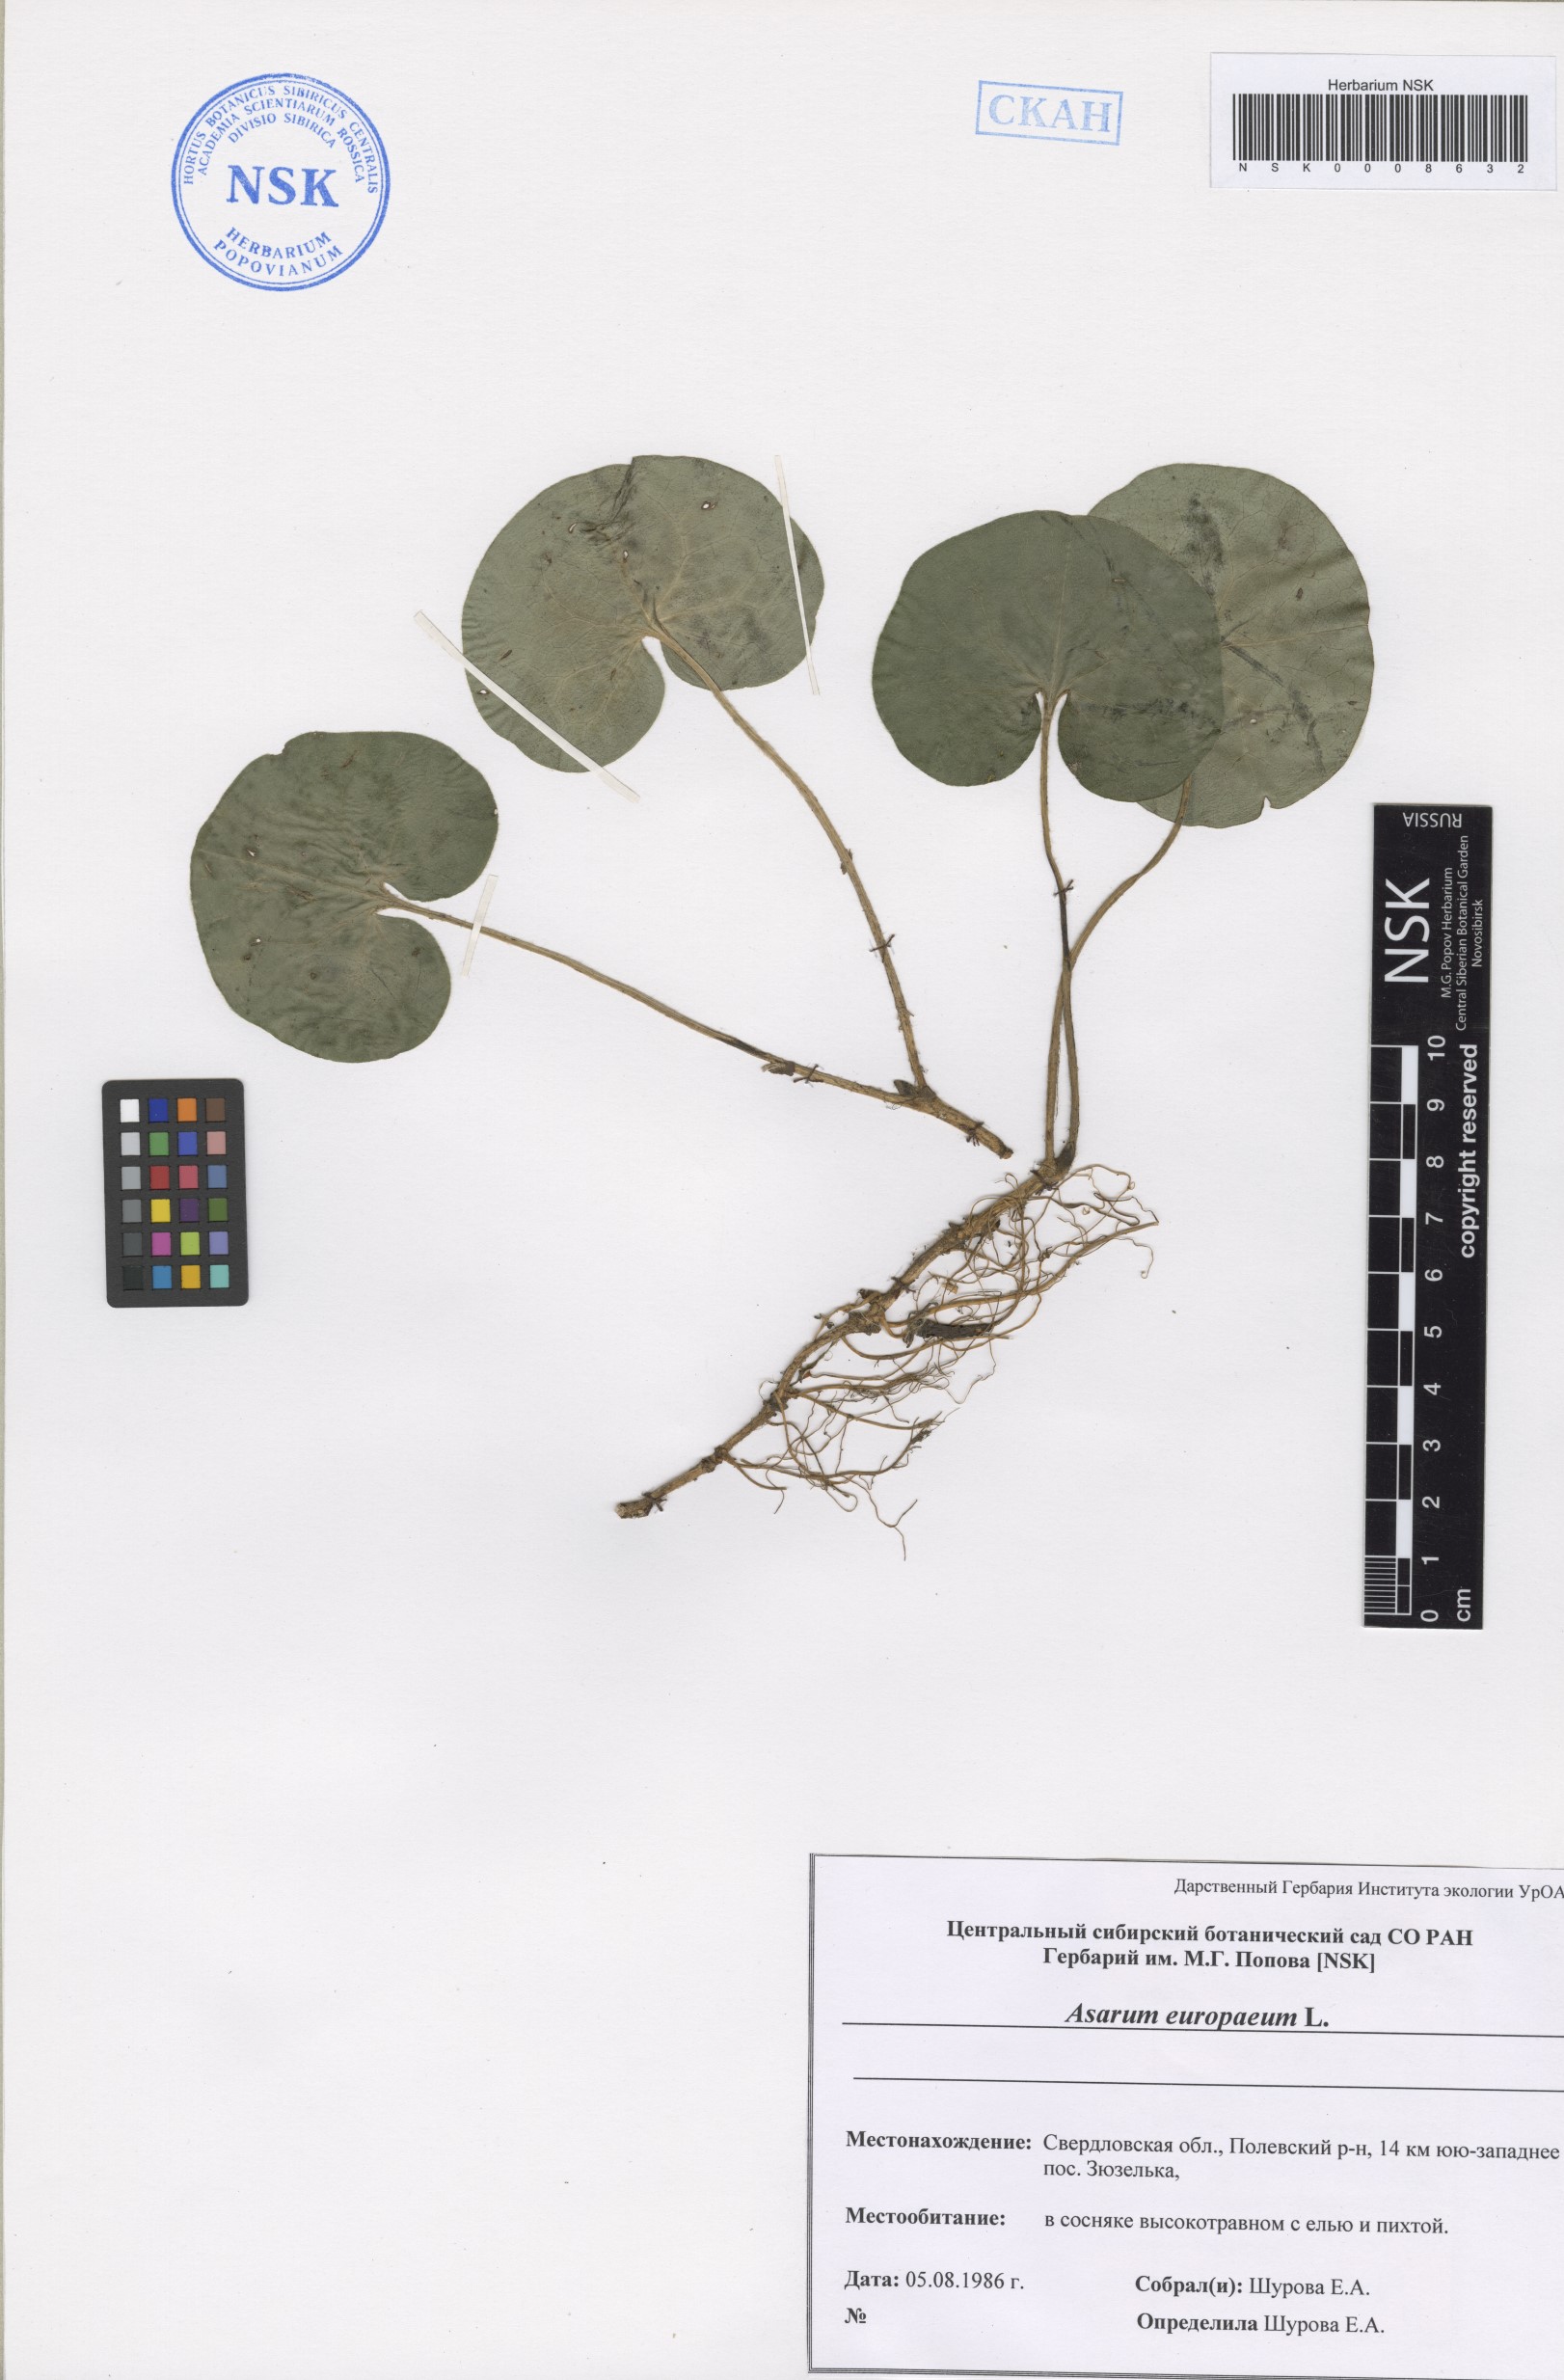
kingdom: Plantae
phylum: Tracheophyta
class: Magnoliopsida
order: Piperales
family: Aristolochiaceae
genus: Asarum
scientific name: Asarum europaeum
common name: Asarabacca
